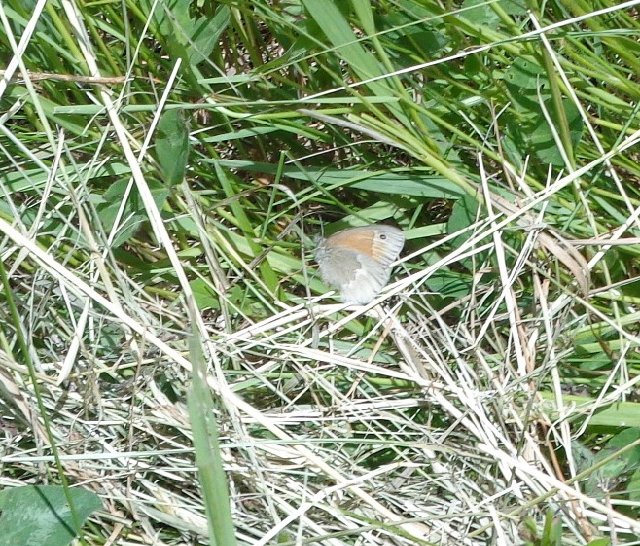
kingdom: Animalia
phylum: Arthropoda
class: Insecta
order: Lepidoptera
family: Nymphalidae
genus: Coenonympha
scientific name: Coenonympha tullia
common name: Large Heath
